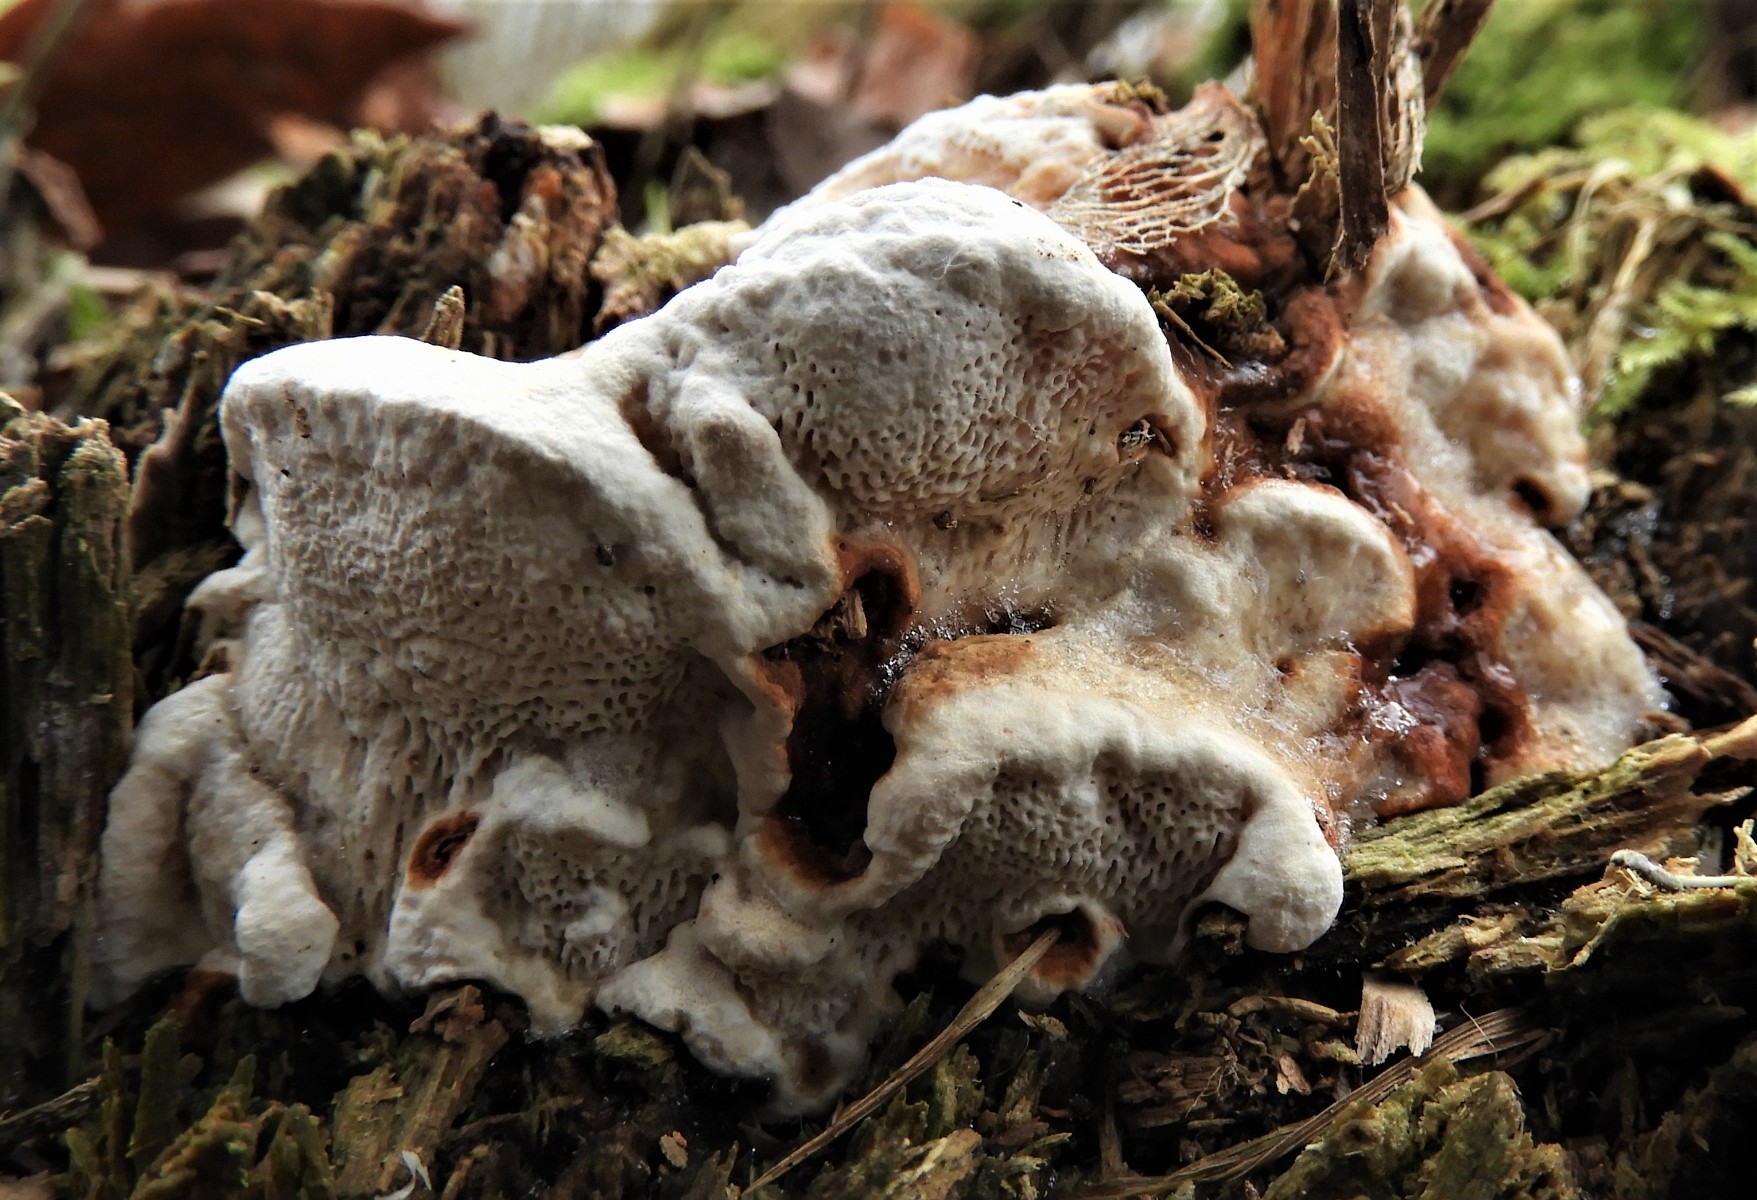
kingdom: Fungi
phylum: Basidiomycota
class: Agaricomycetes
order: Russulales
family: Bondarzewiaceae
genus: Heterobasidion
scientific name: Heterobasidion annosum
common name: almindelig rodfordærver
